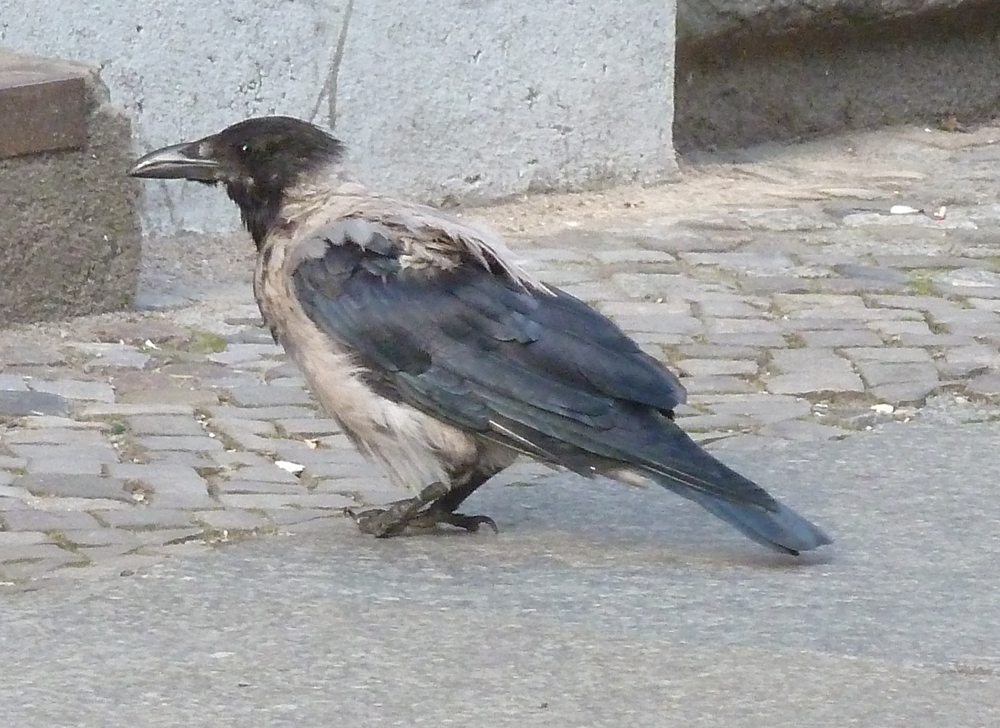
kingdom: Animalia
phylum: Chordata
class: Aves
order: Passeriformes
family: Corvidae
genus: Corvus
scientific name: Corvus cornix
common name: Hooded crow
